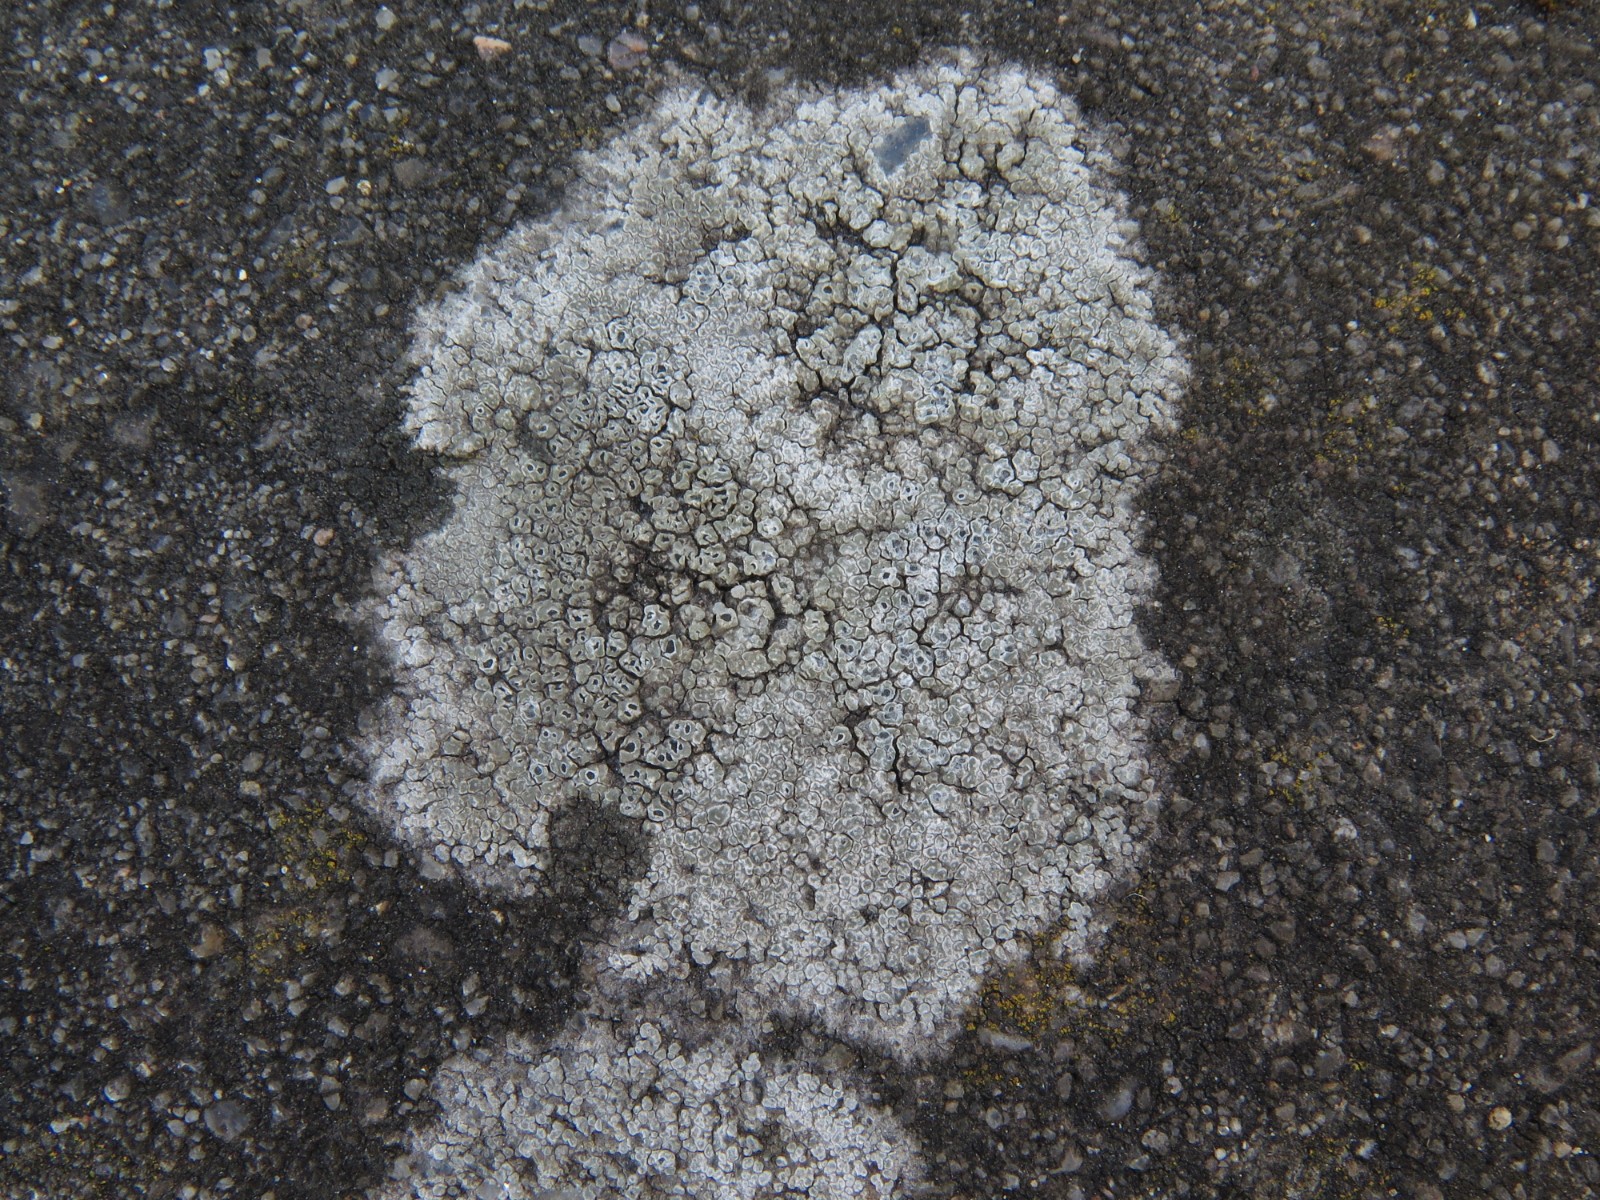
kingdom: Fungi
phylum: Ascomycota
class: Lecanoromycetes
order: Pertusariales
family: Megasporaceae
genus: Circinaria
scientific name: Circinaria contorta
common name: indviklet hulskivelav
